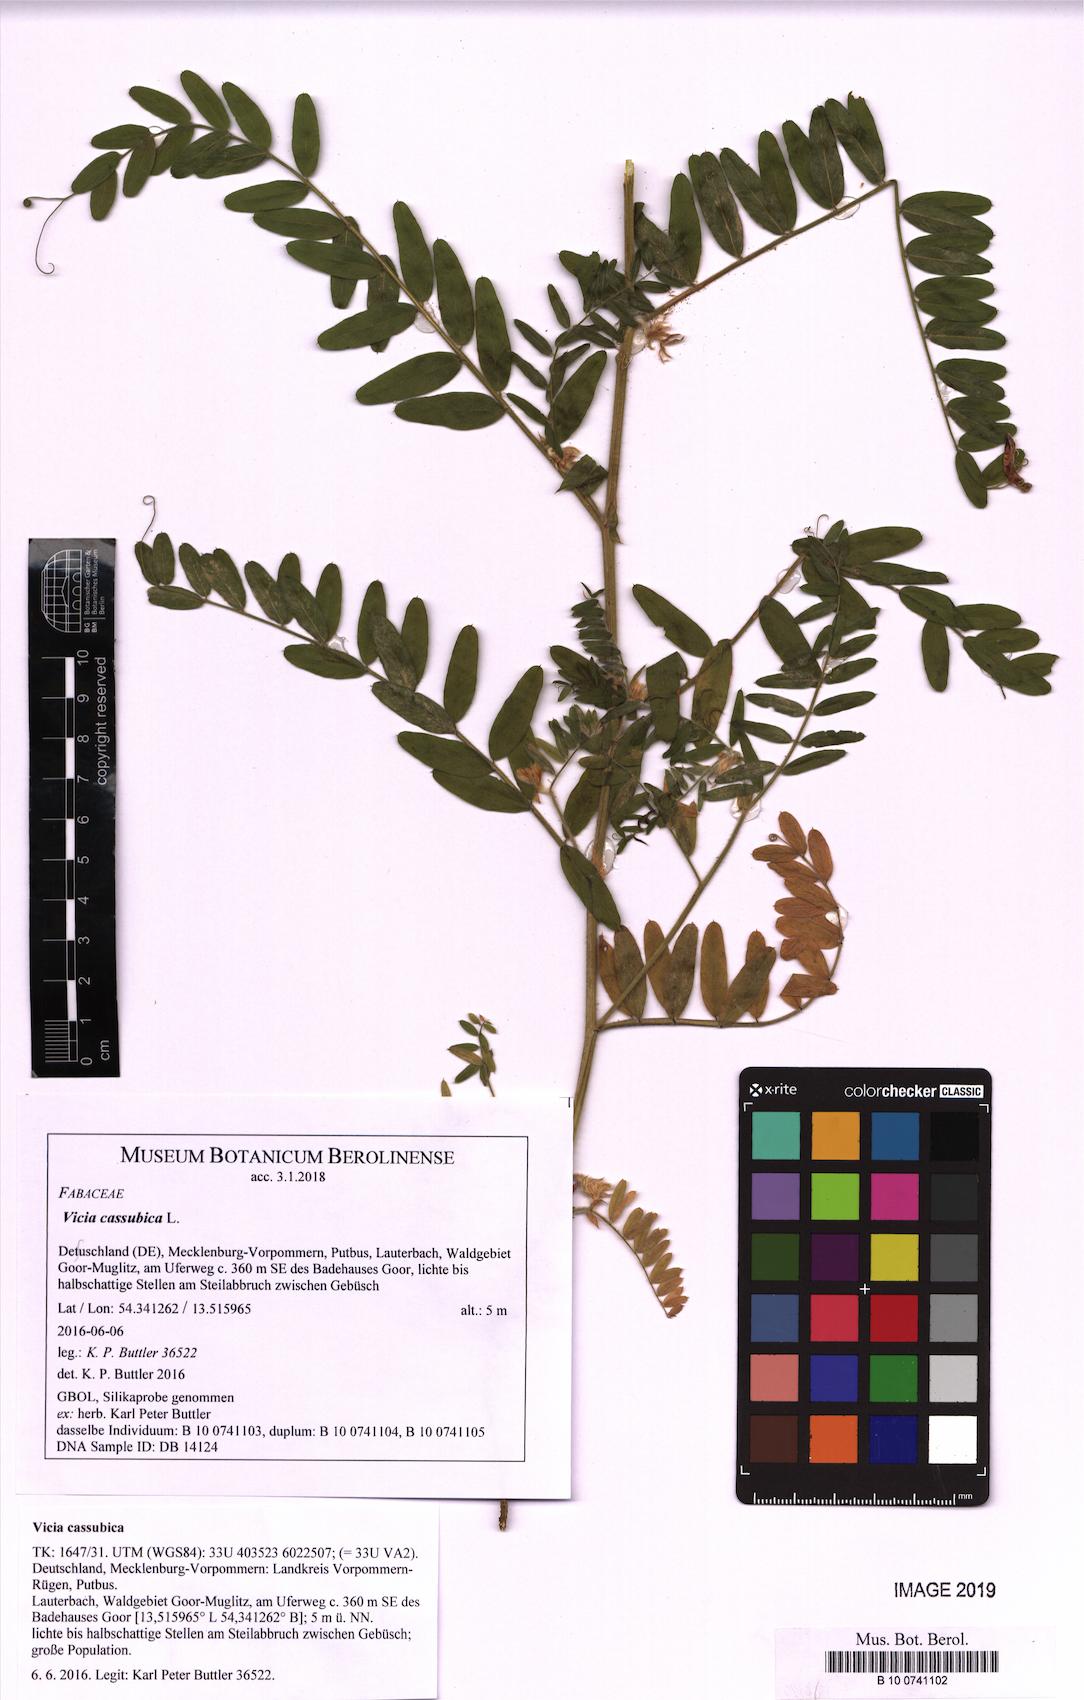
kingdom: Plantae
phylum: Tracheophyta
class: Magnoliopsida
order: Fabales
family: Fabaceae
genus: Vicia
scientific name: Vicia cassubica
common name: Danzig vetch
